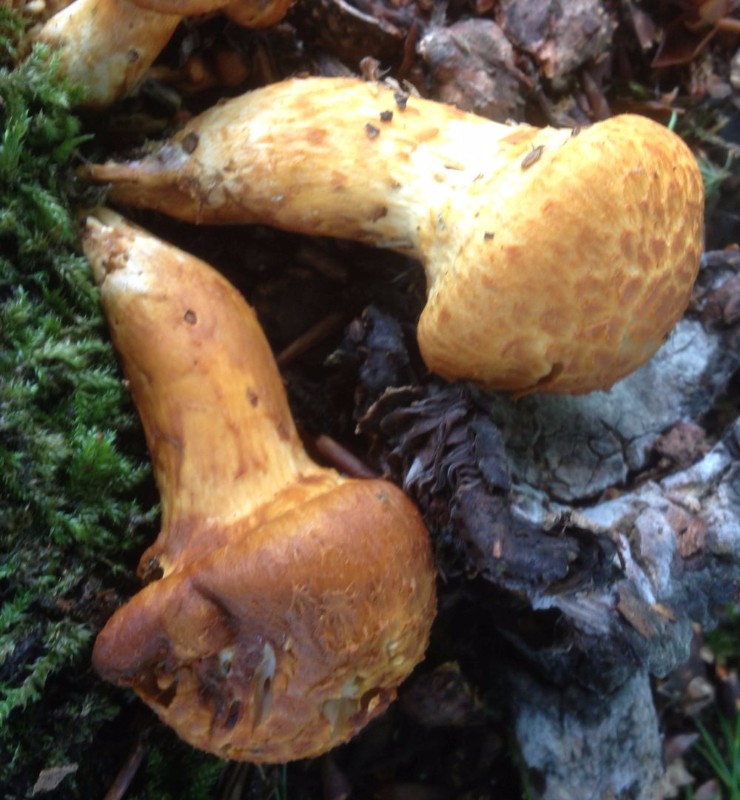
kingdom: Fungi
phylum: Basidiomycota
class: Agaricomycetes
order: Agaricales
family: Hymenogastraceae
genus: Gymnopilus
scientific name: Gymnopilus spectabilis
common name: fibret flammehat
